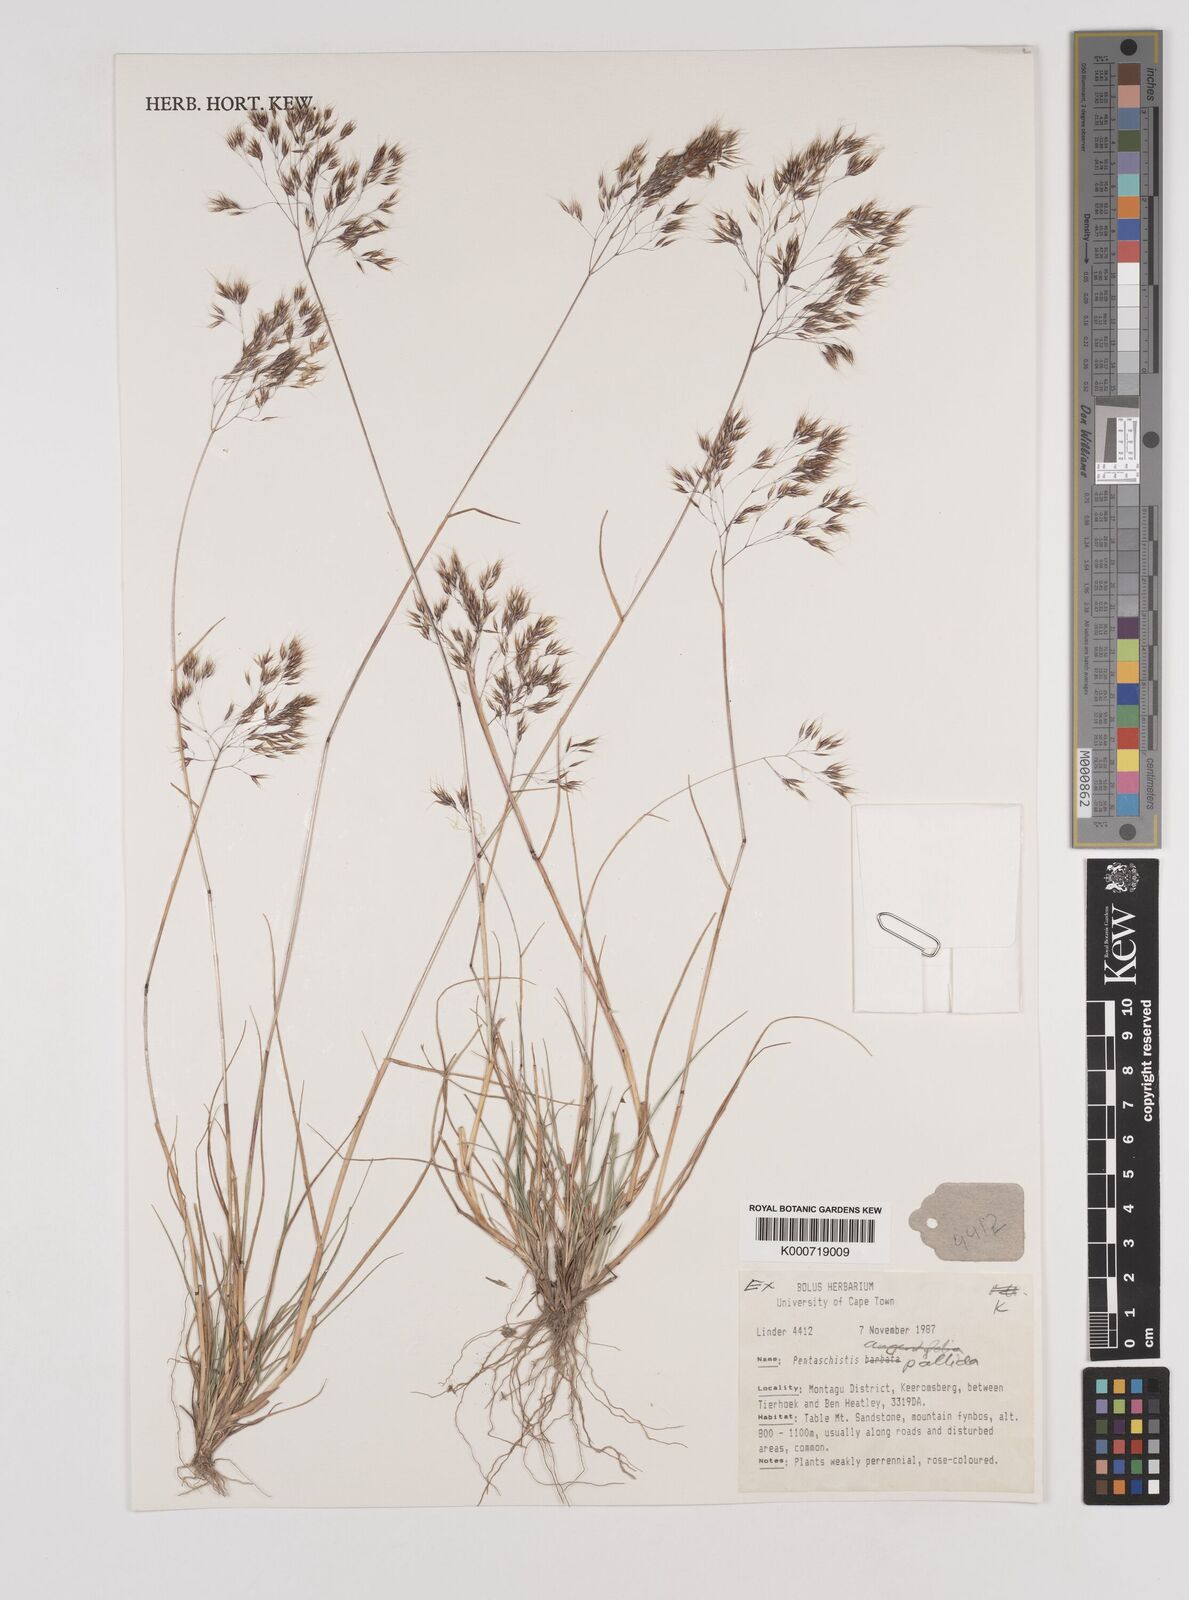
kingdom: Plantae
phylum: Tracheophyta
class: Liliopsida
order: Poales
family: Poaceae
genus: Pentameris
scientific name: Pentameris pallida
